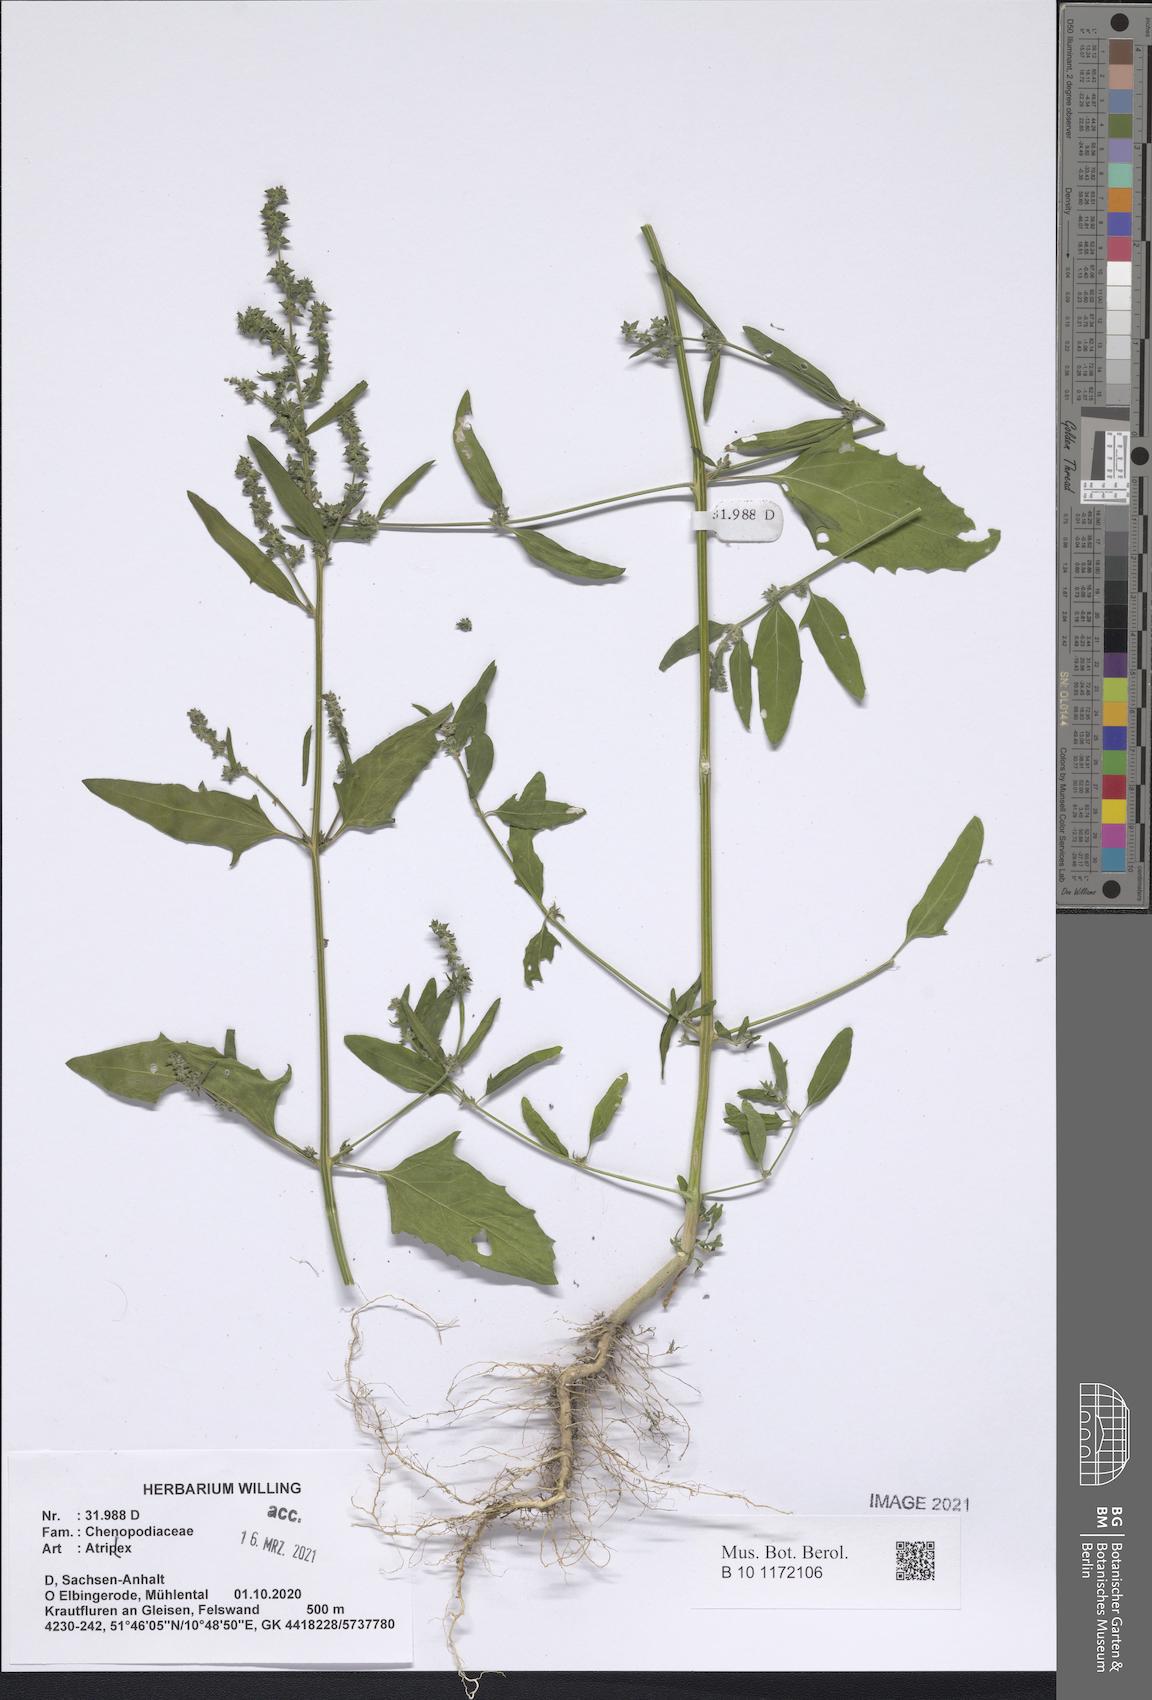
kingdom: Plantae
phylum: Tracheophyta
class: Magnoliopsida
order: Caryophyllales
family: Amaranthaceae
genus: Atriplex
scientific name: Atriplex
